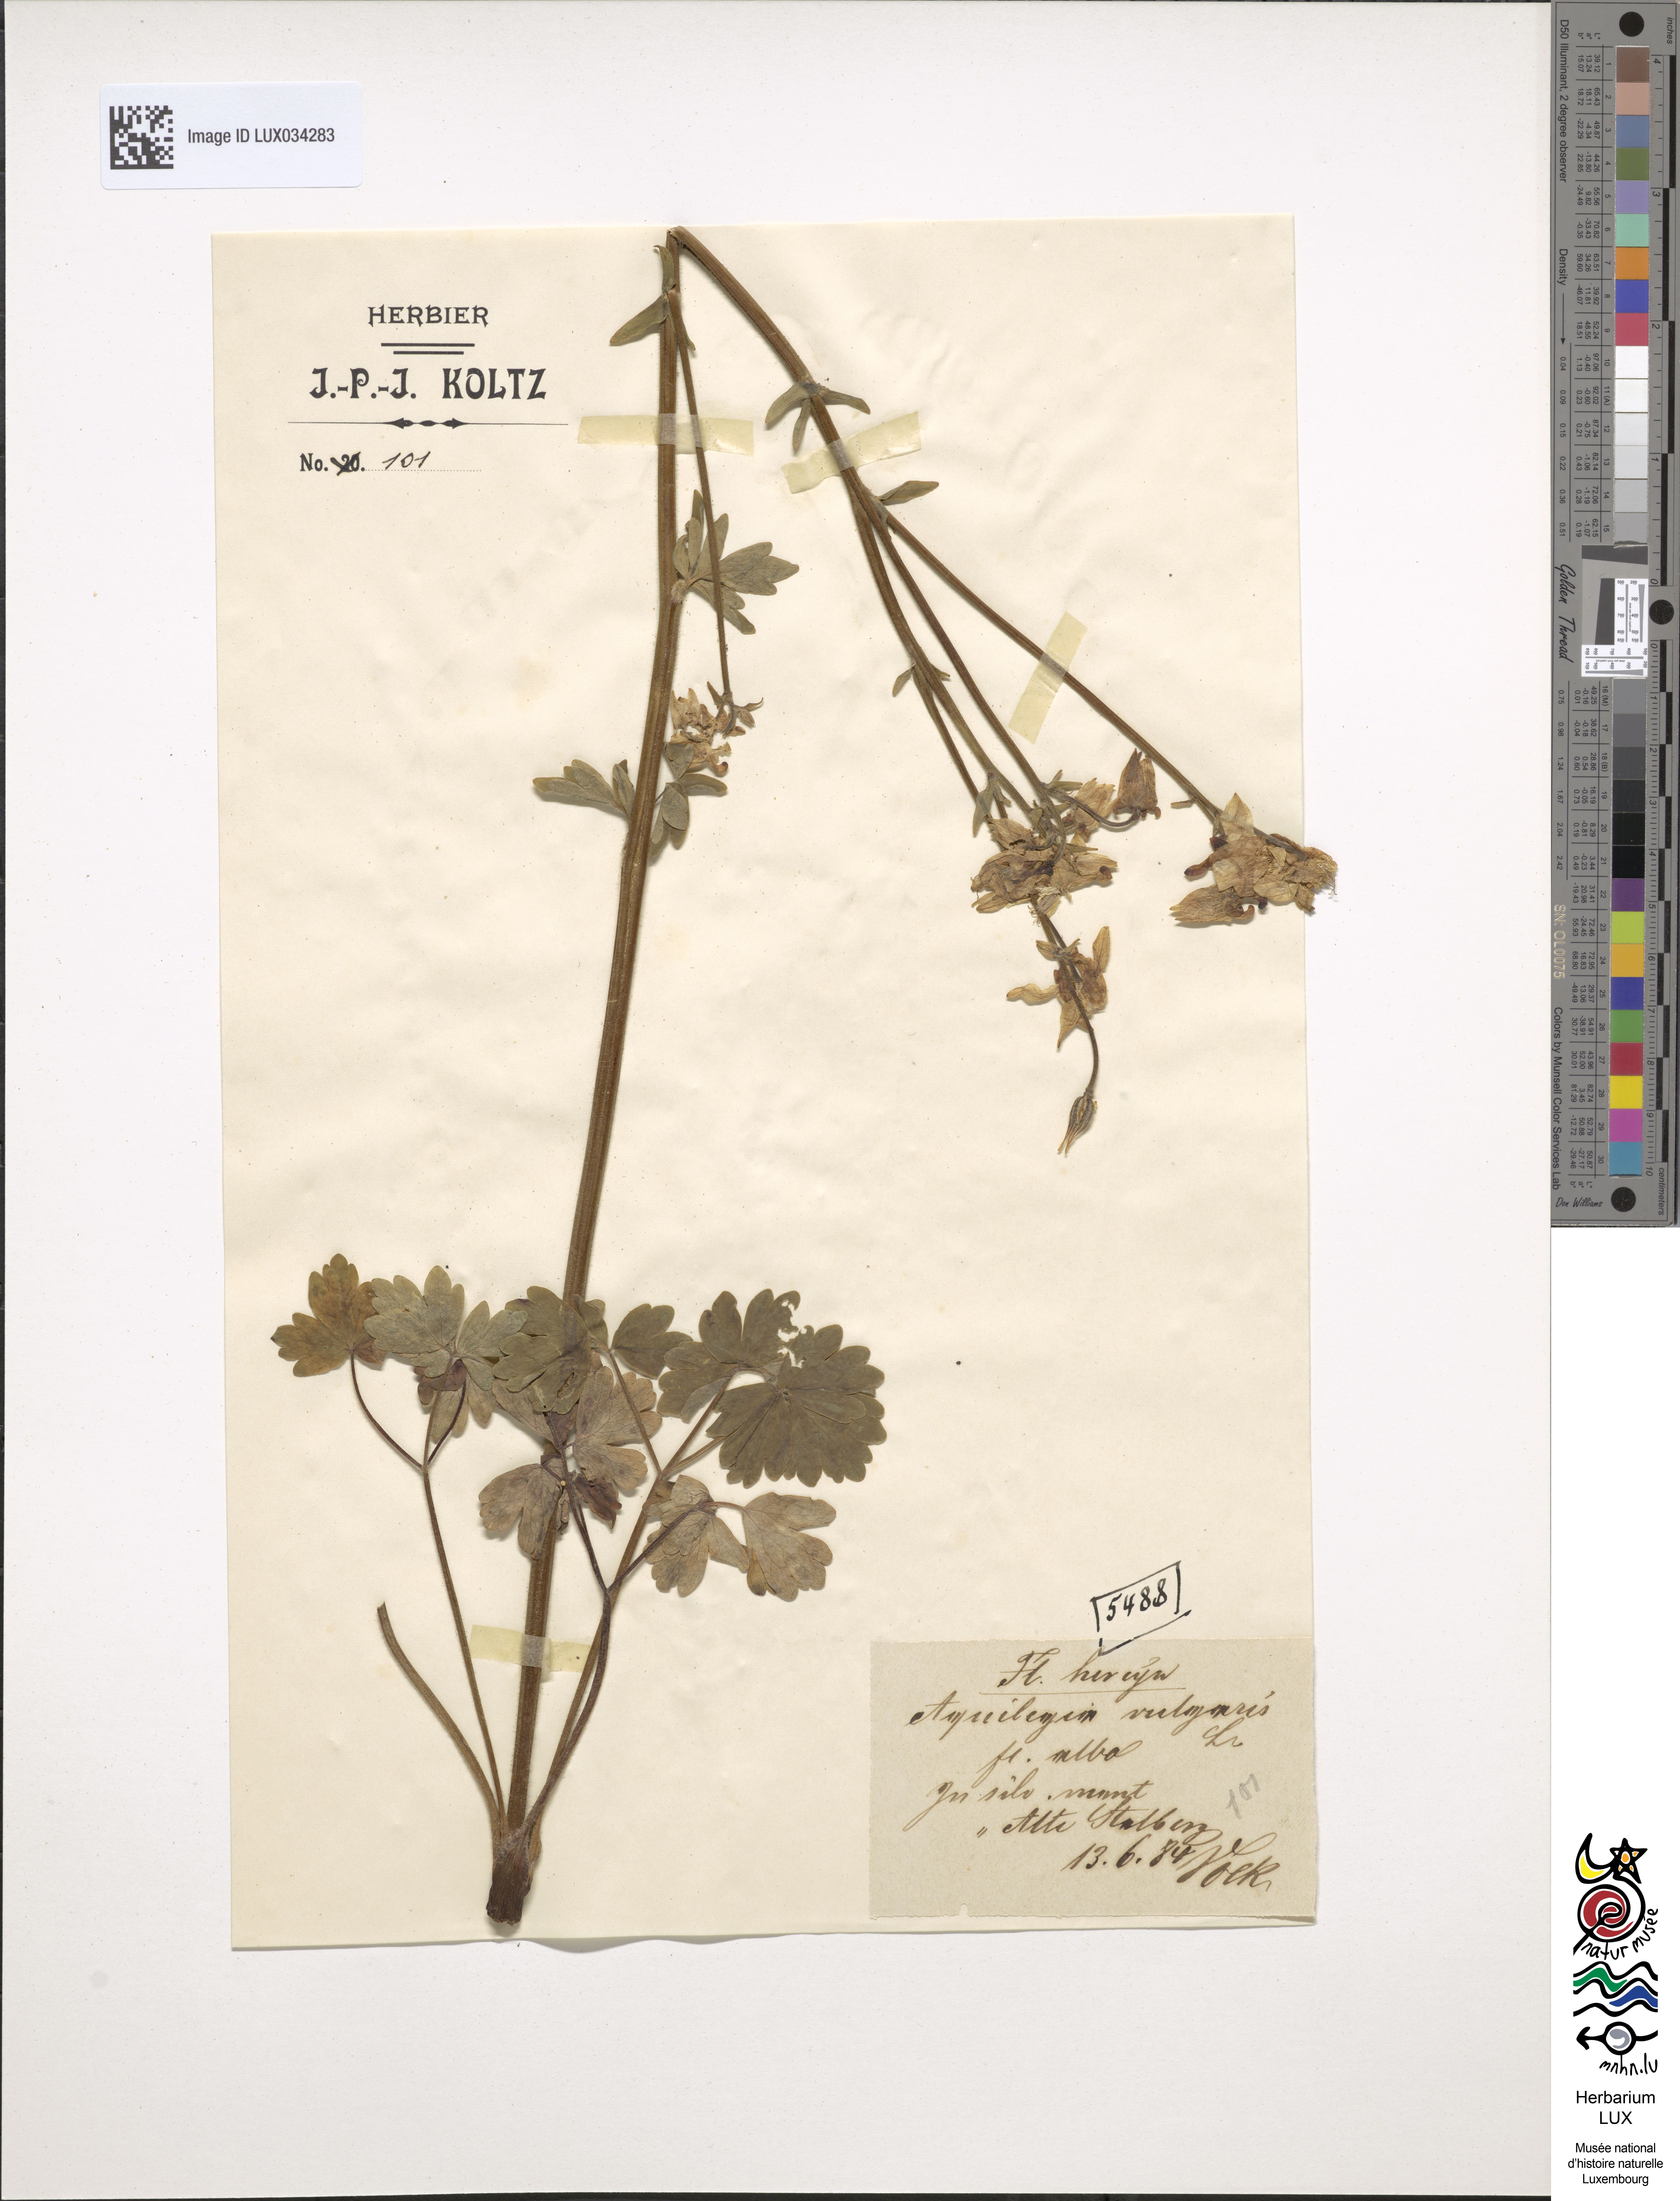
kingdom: Plantae
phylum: Tracheophyta
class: Magnoliopsida
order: Ranunculales
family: Ranunculaceae
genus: Aquilegia
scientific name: Aquilegia vulgaris
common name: Columbine
